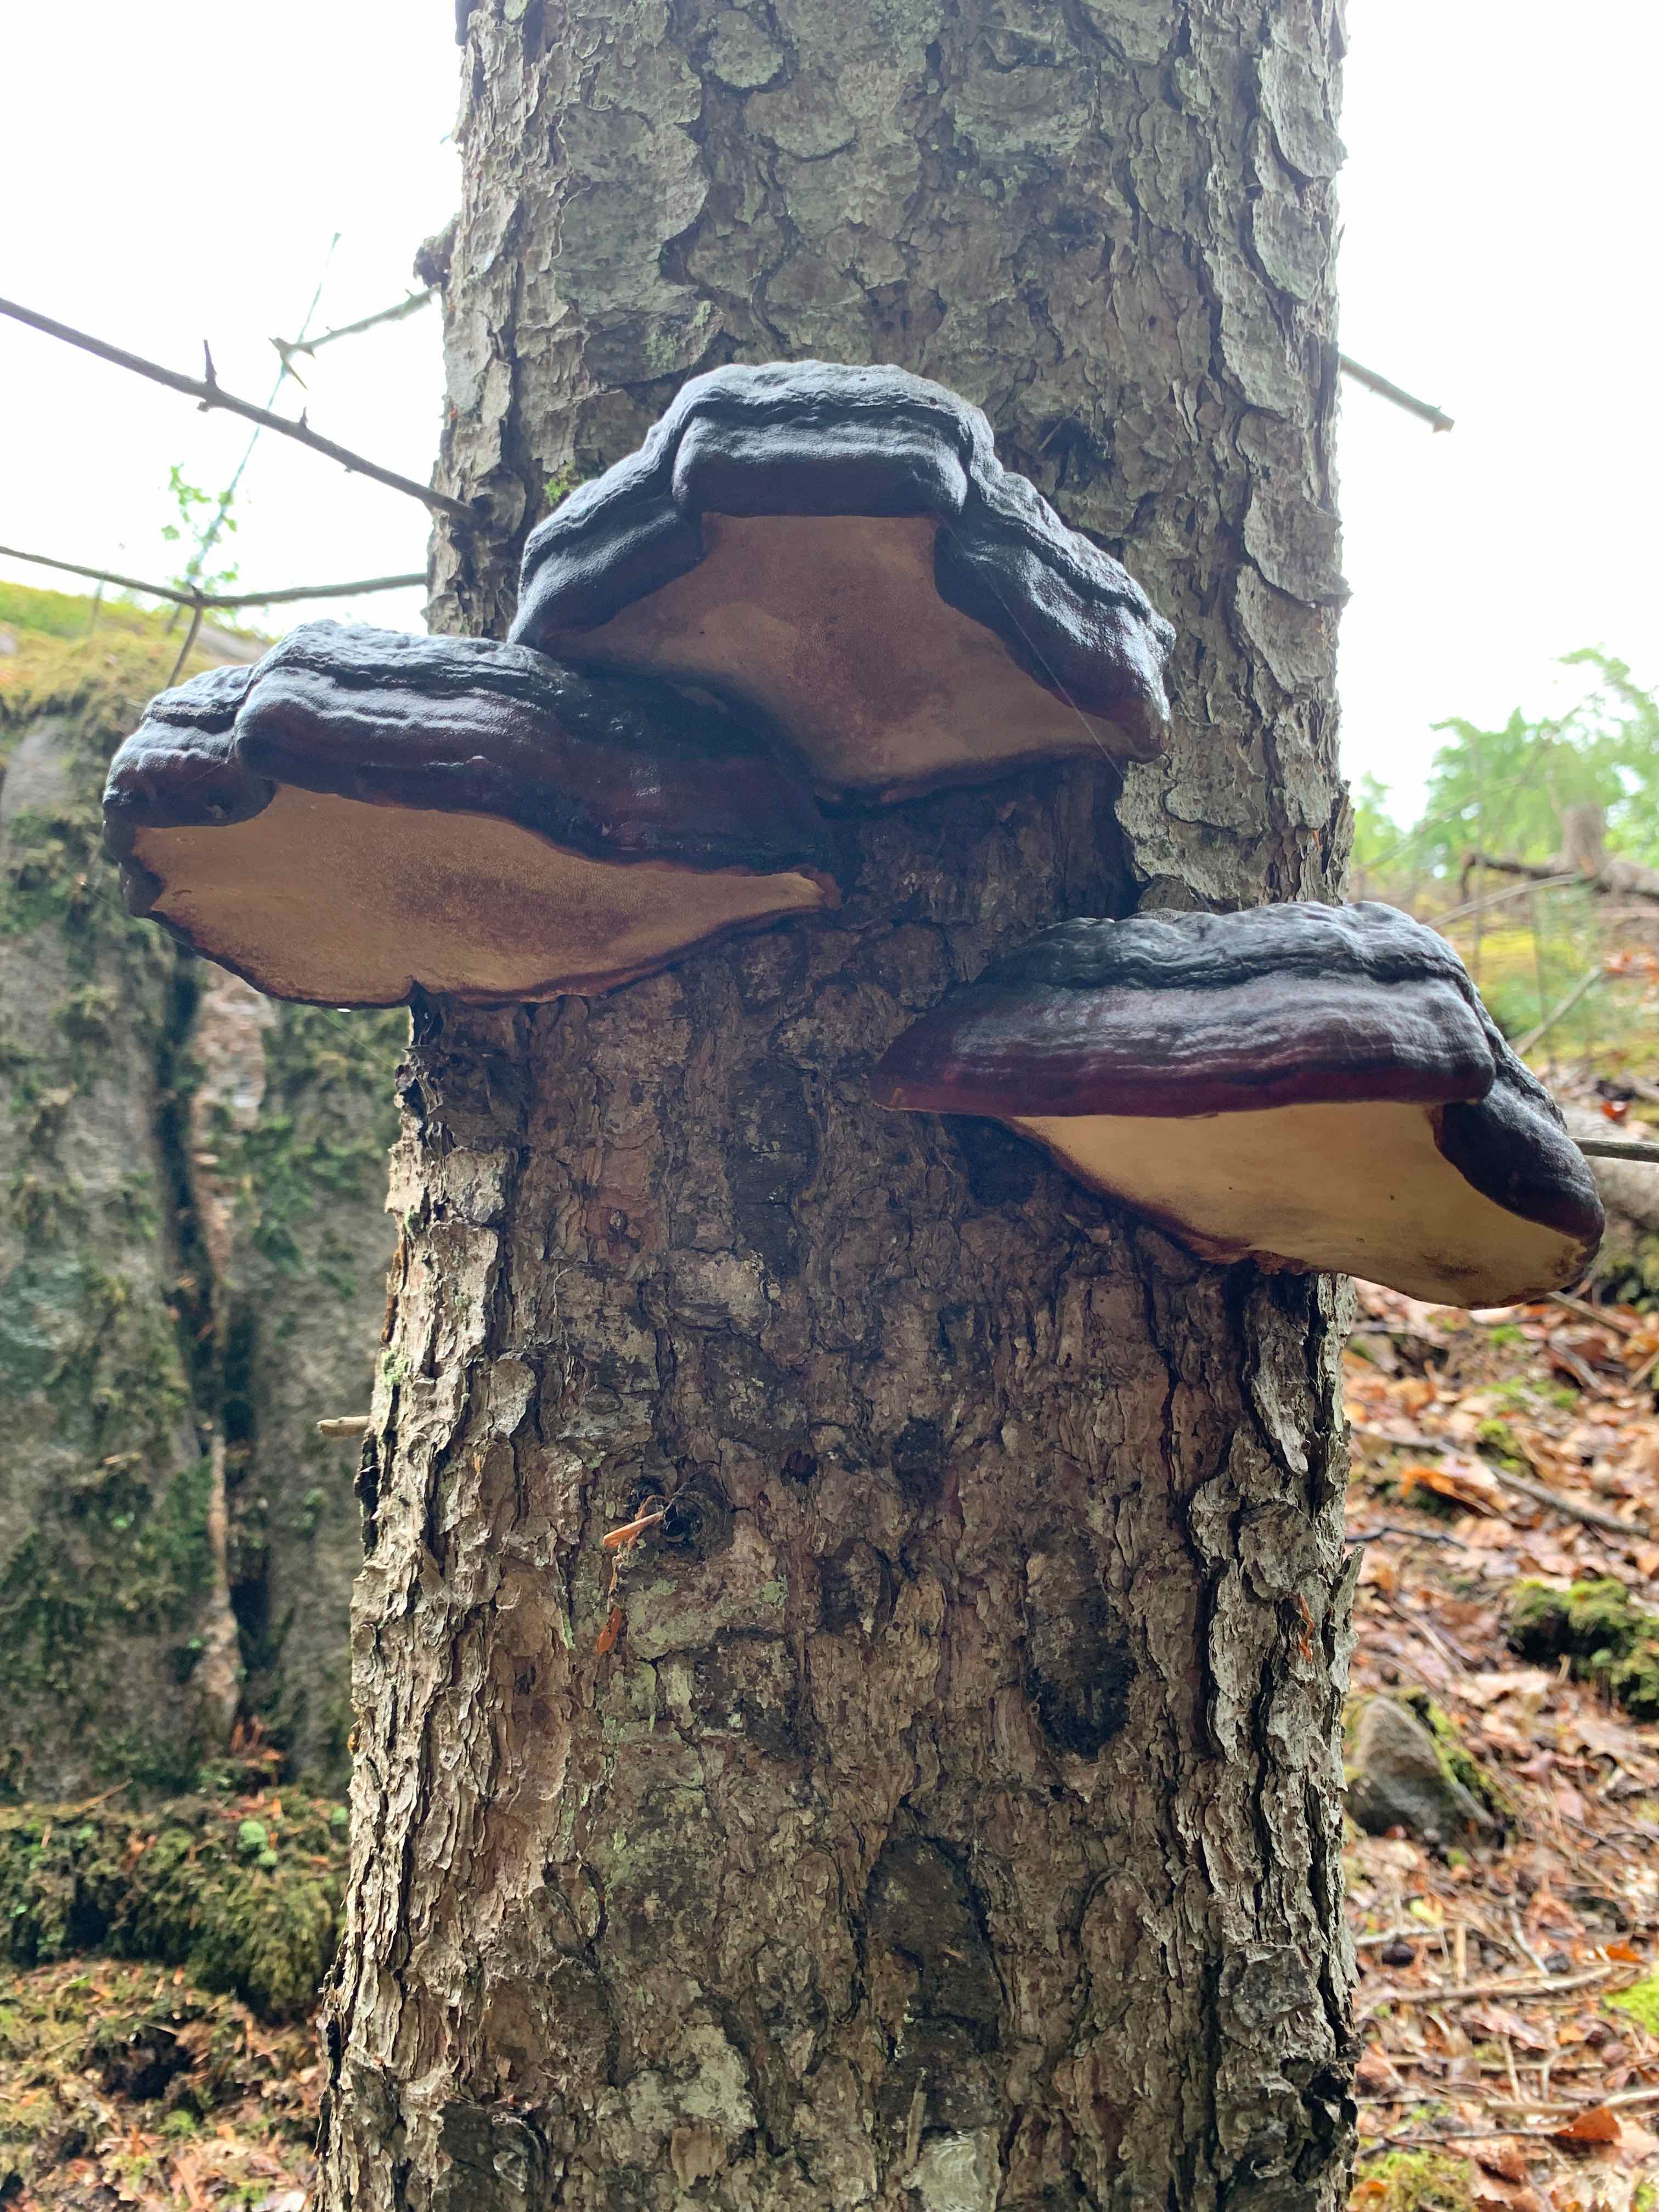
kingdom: Fungi
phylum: Basidiomycota
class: Agaricomycetes
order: Polyporales
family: Fomitopsidaceae
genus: Fomitopsis
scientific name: Fomitopsis pinicola
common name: randbæltet hovporesvamp
